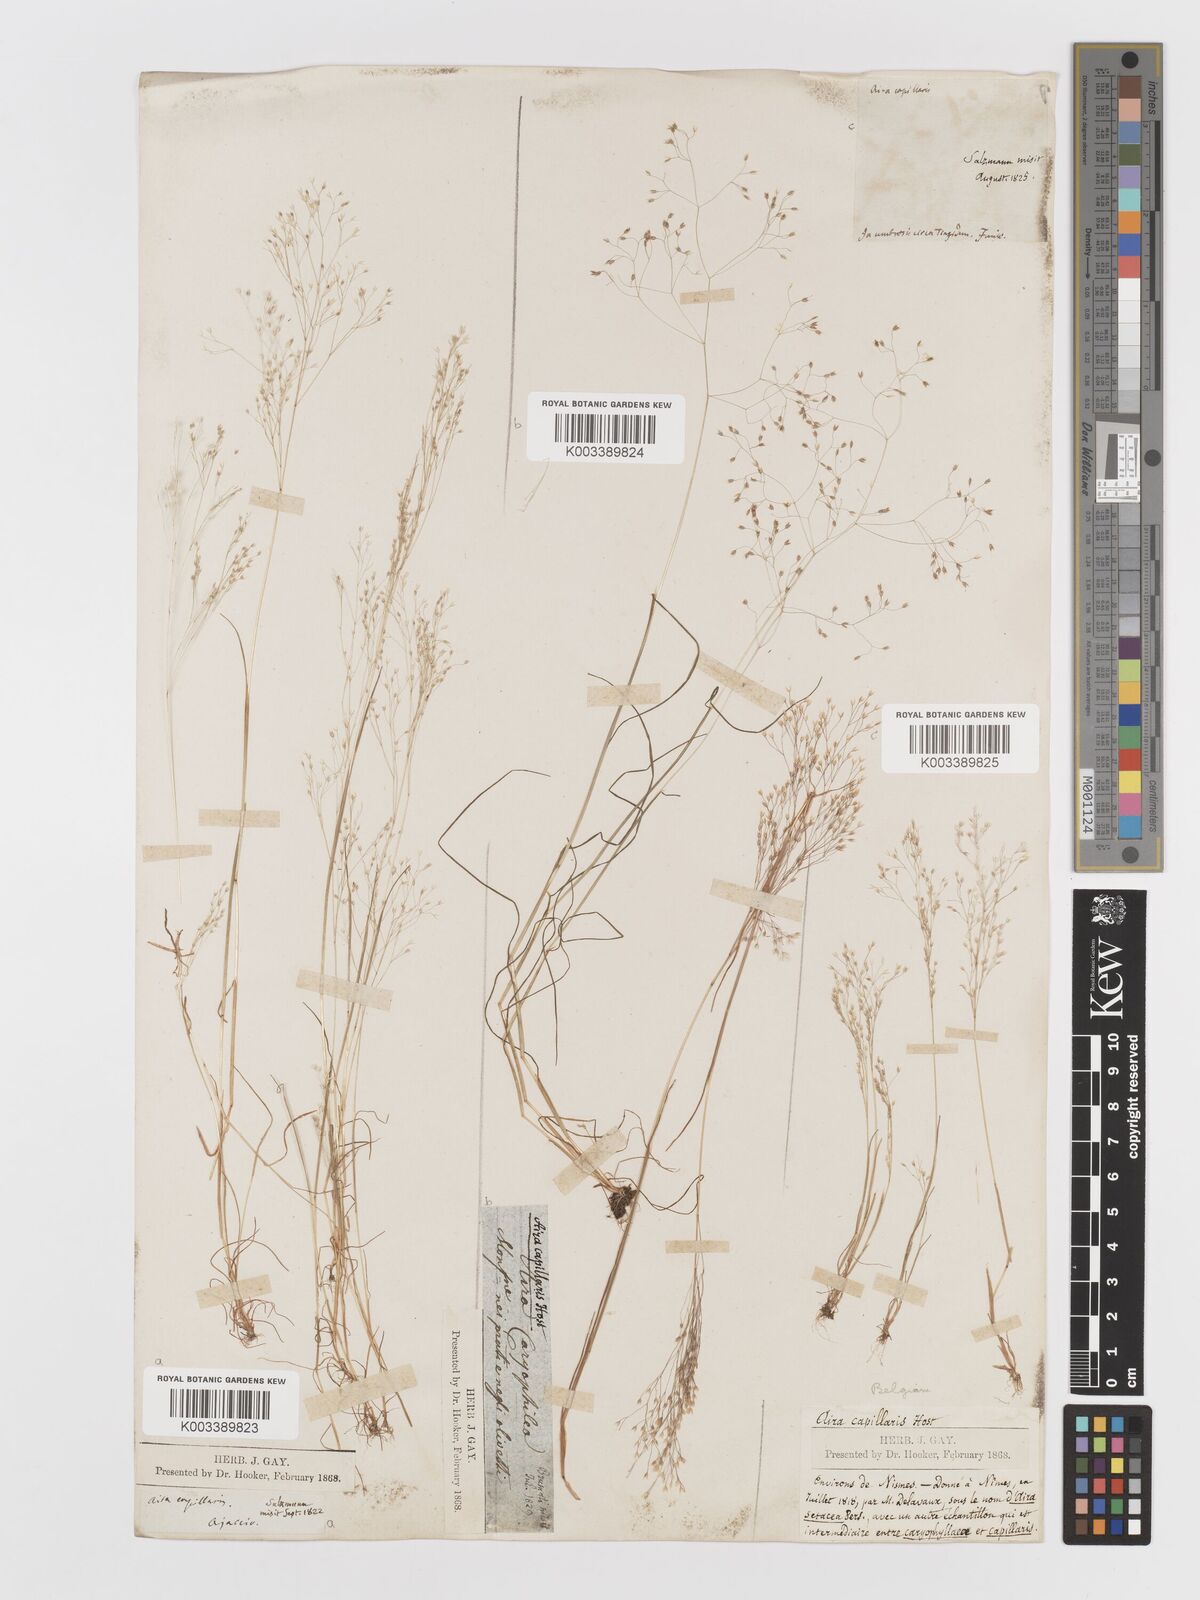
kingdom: Plantae
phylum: Tracheophyta
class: Liliopsida
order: Poales
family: Poaceae
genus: Aira
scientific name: Aira elegans
